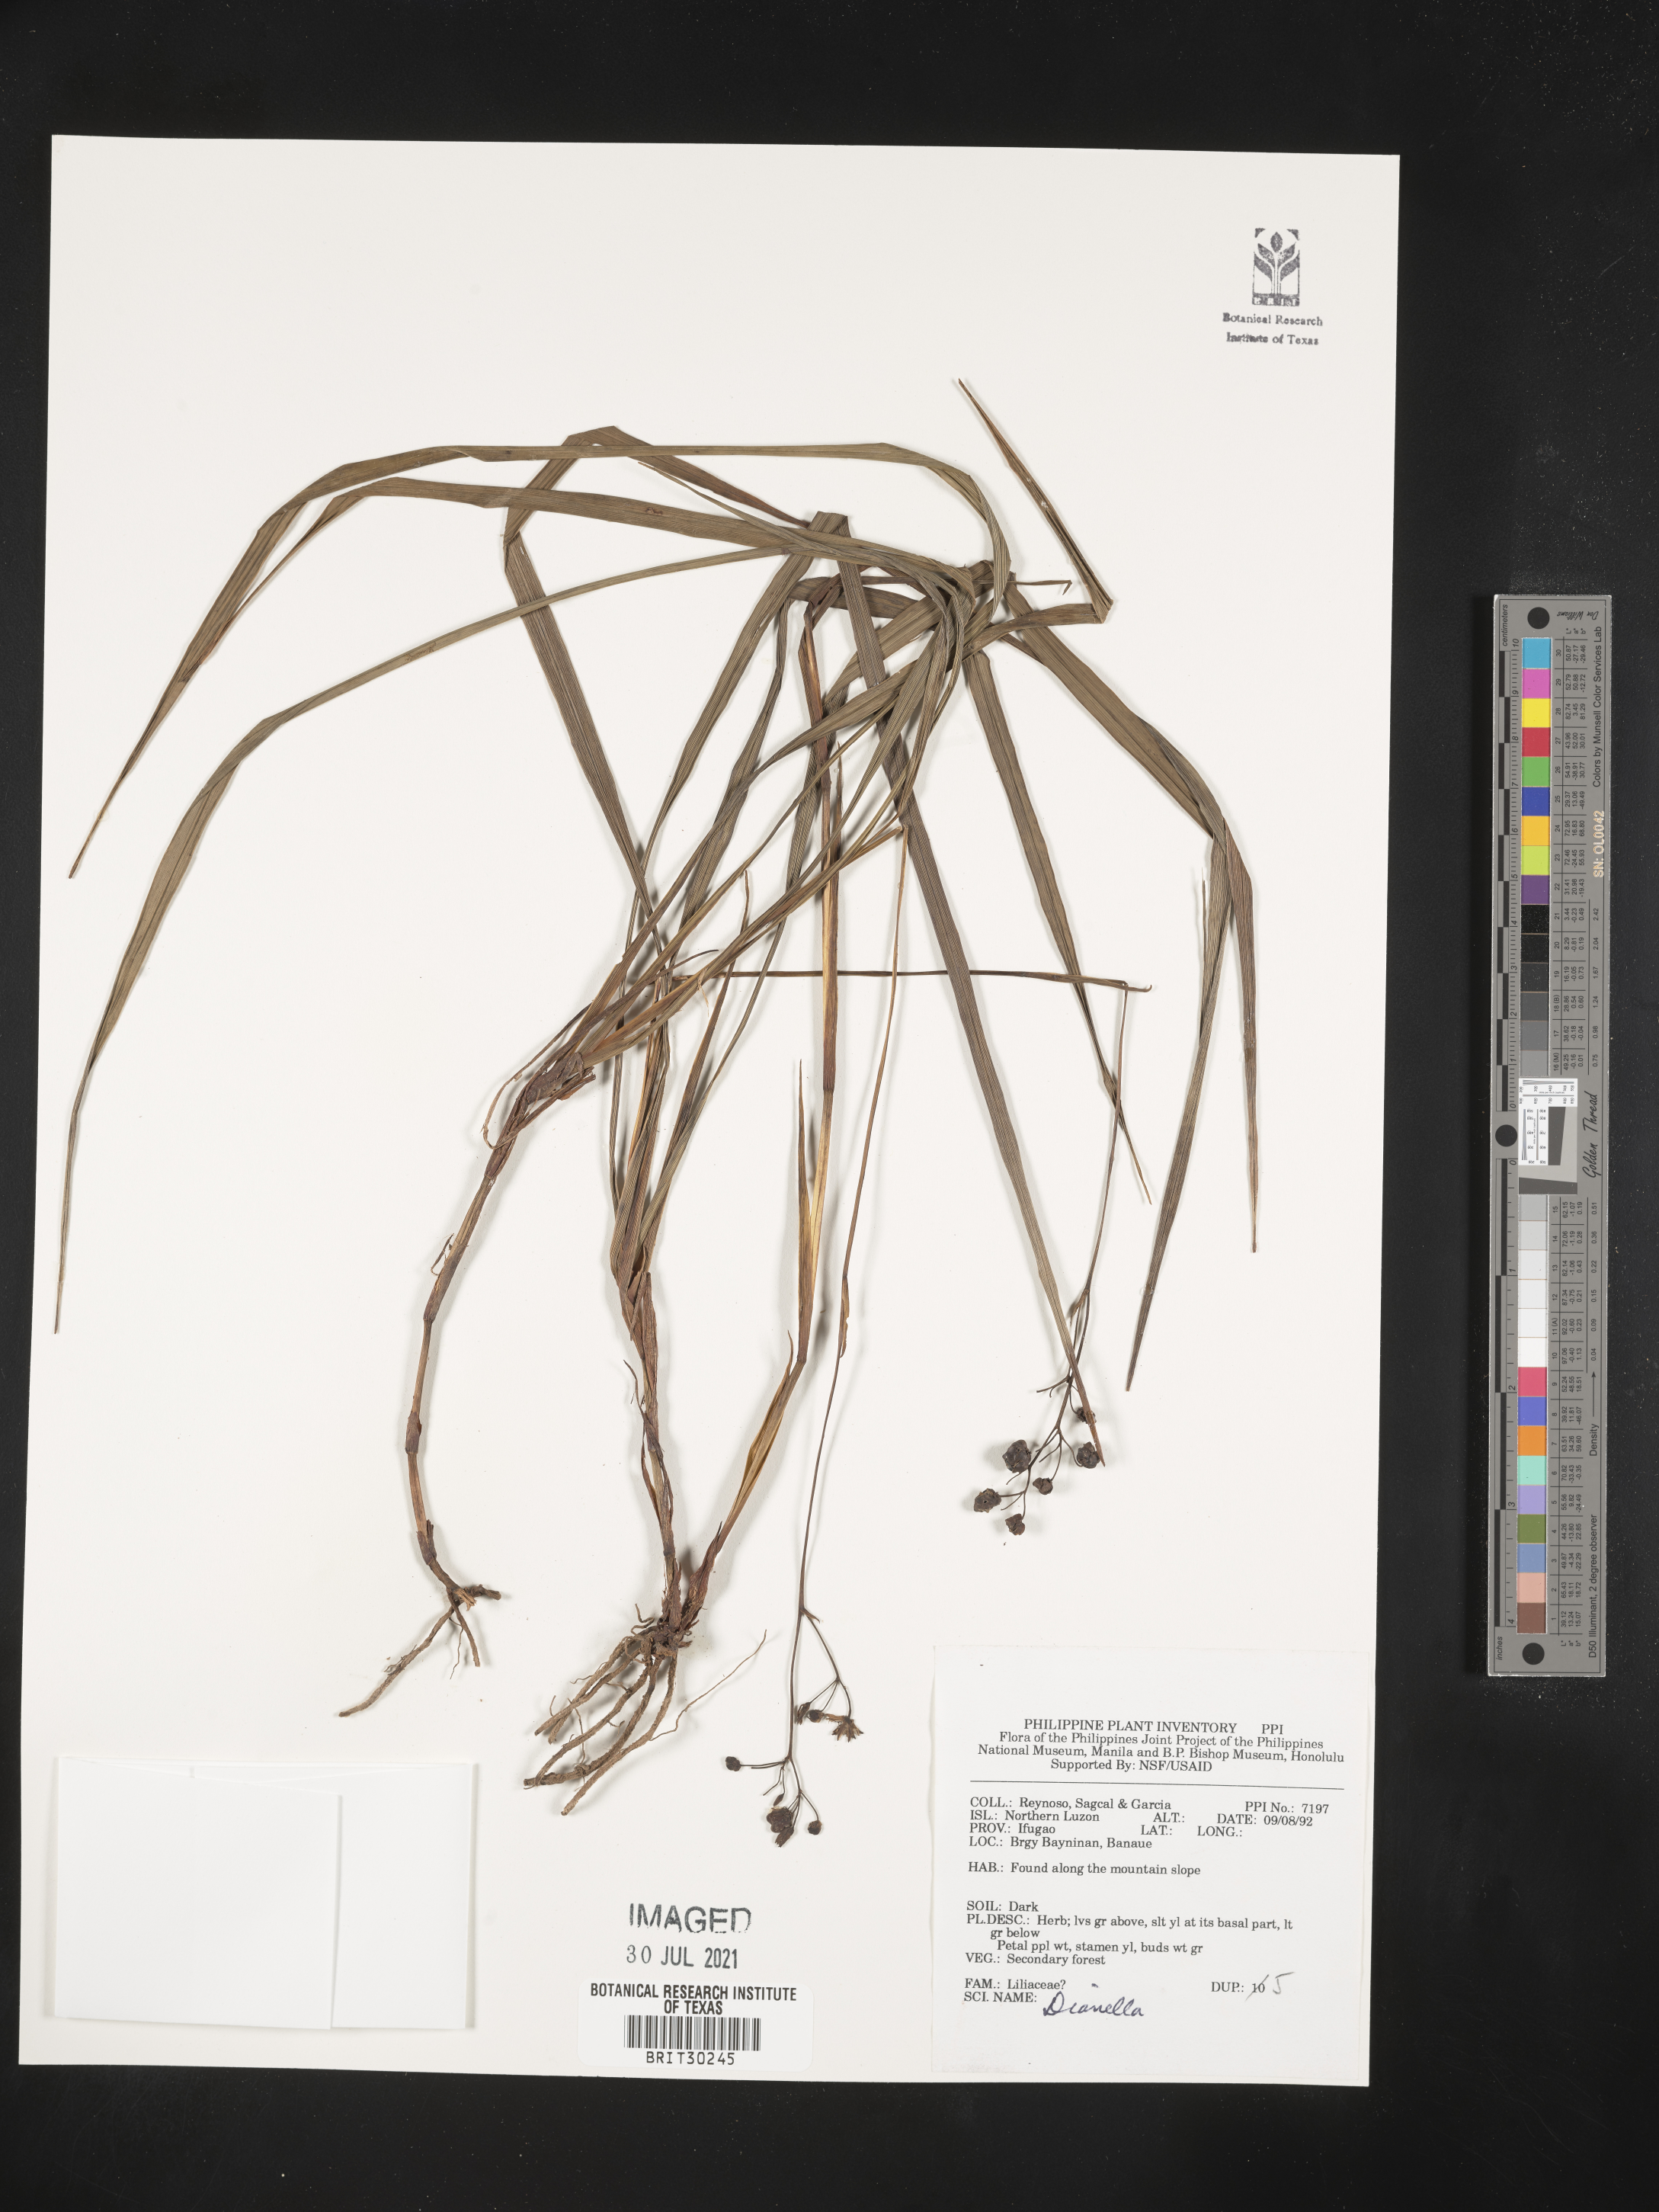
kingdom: Plantae
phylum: Tracheophyta
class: Liliopsida
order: Liliales
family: Liliaceae
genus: Dianella
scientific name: Dianella
